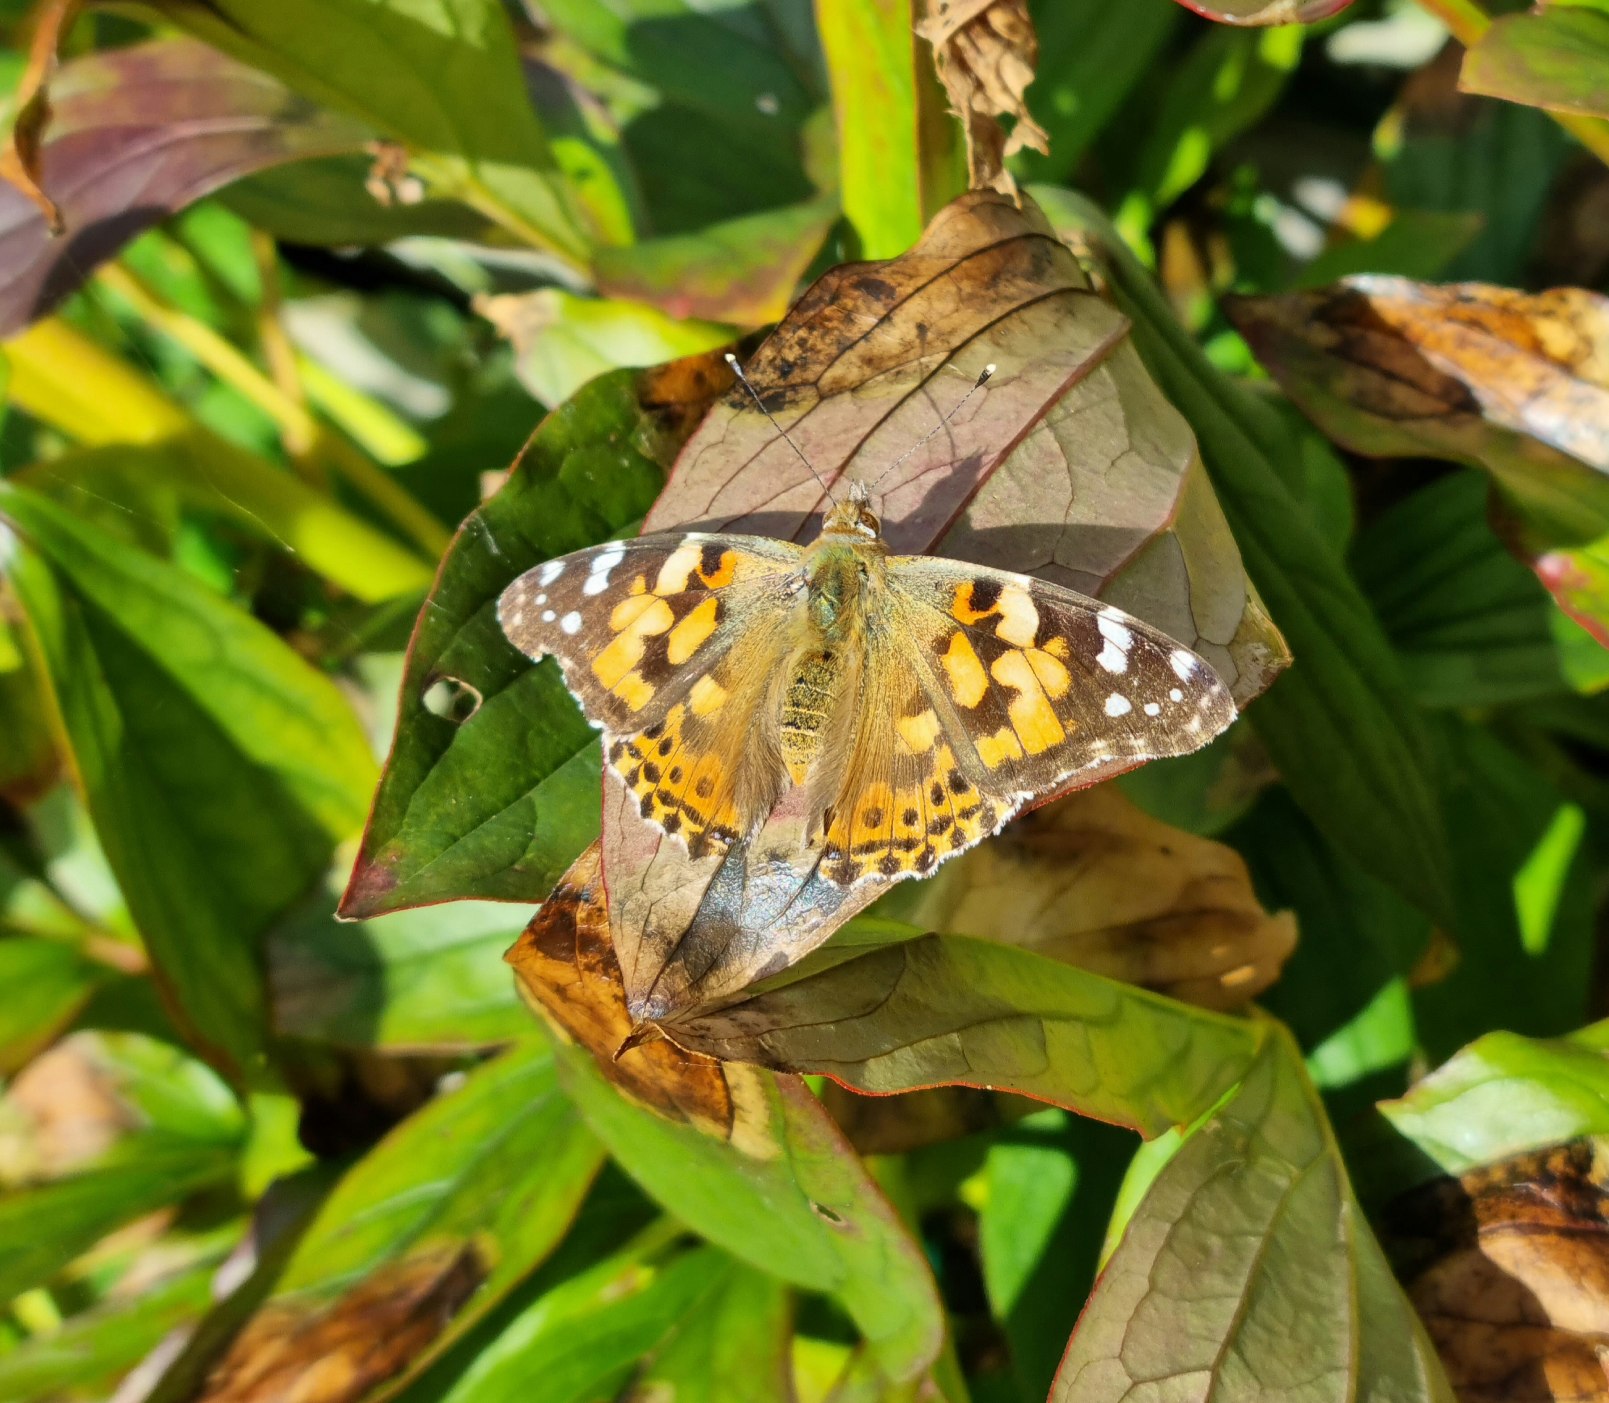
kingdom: Animalia
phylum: Arthropoda
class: Insecta
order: Lepidoptera
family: Nymphalidae
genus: Vanessa
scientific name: Vanessa cardui
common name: Tidselsommerfugl
